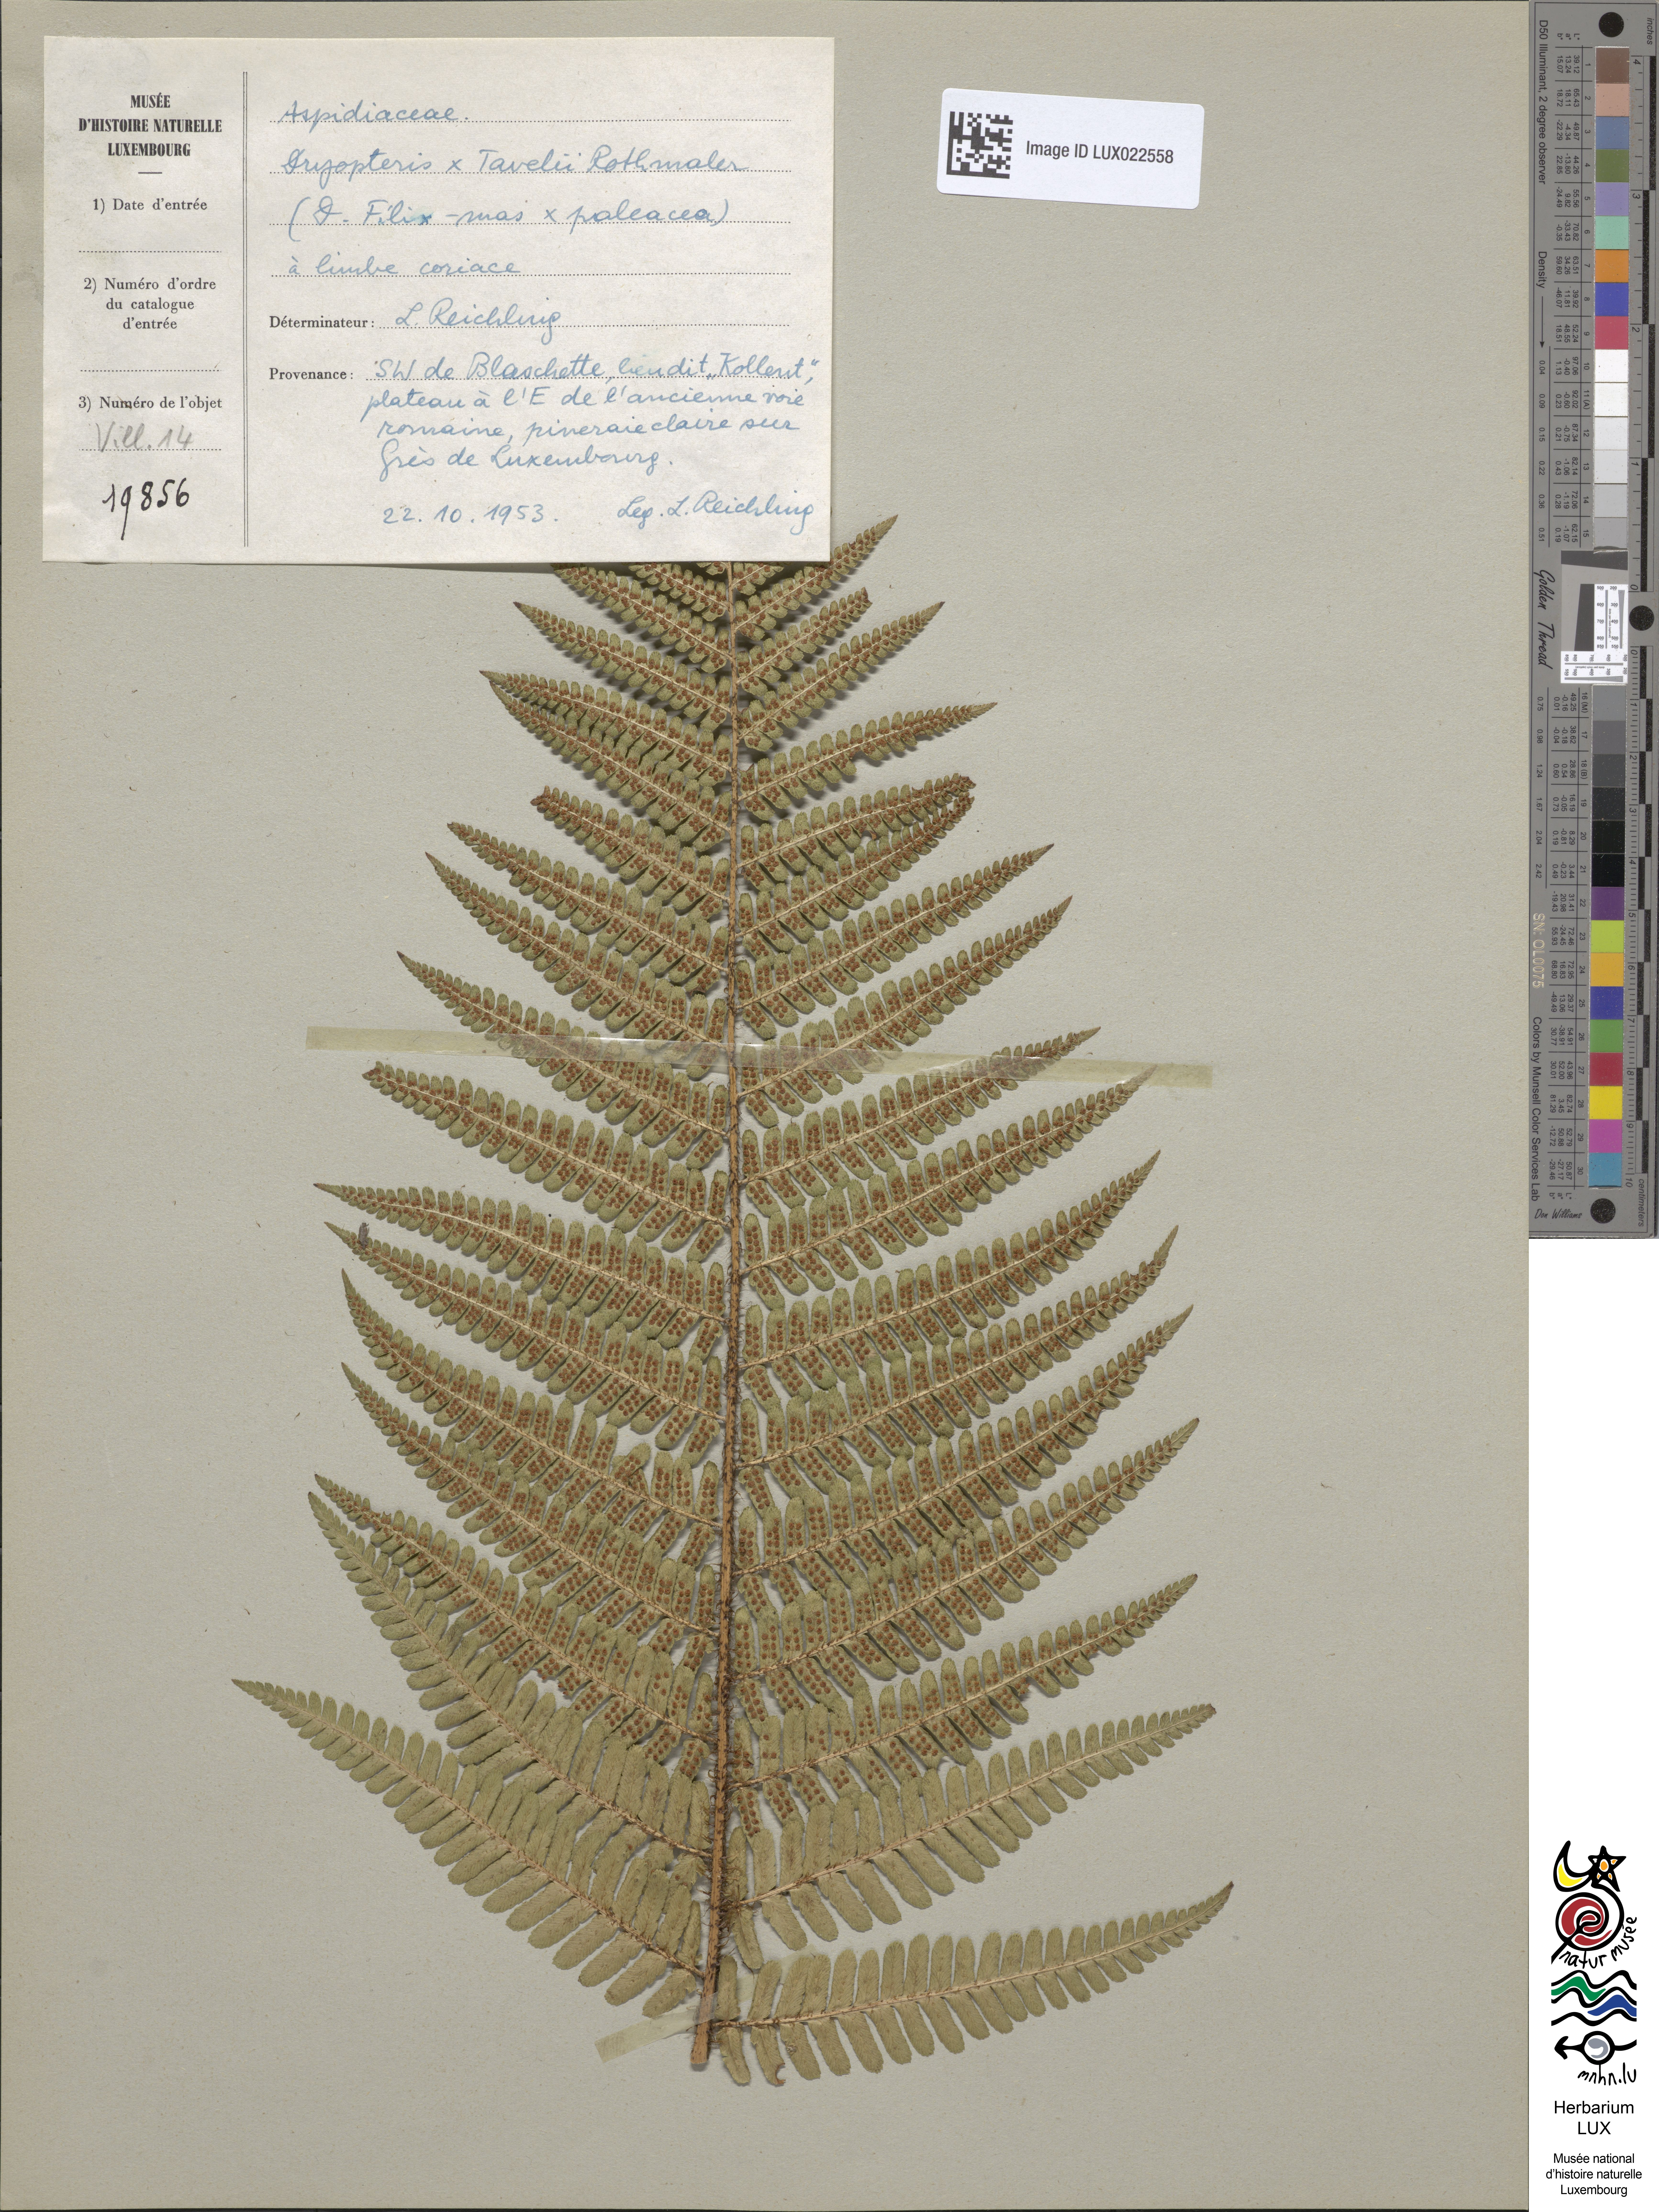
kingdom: Plantae
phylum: Tracheophyta
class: Polypodiopsida
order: Polypodiales
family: Dryopteridaceae
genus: Dryopteris
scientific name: Dryopteris borreri
